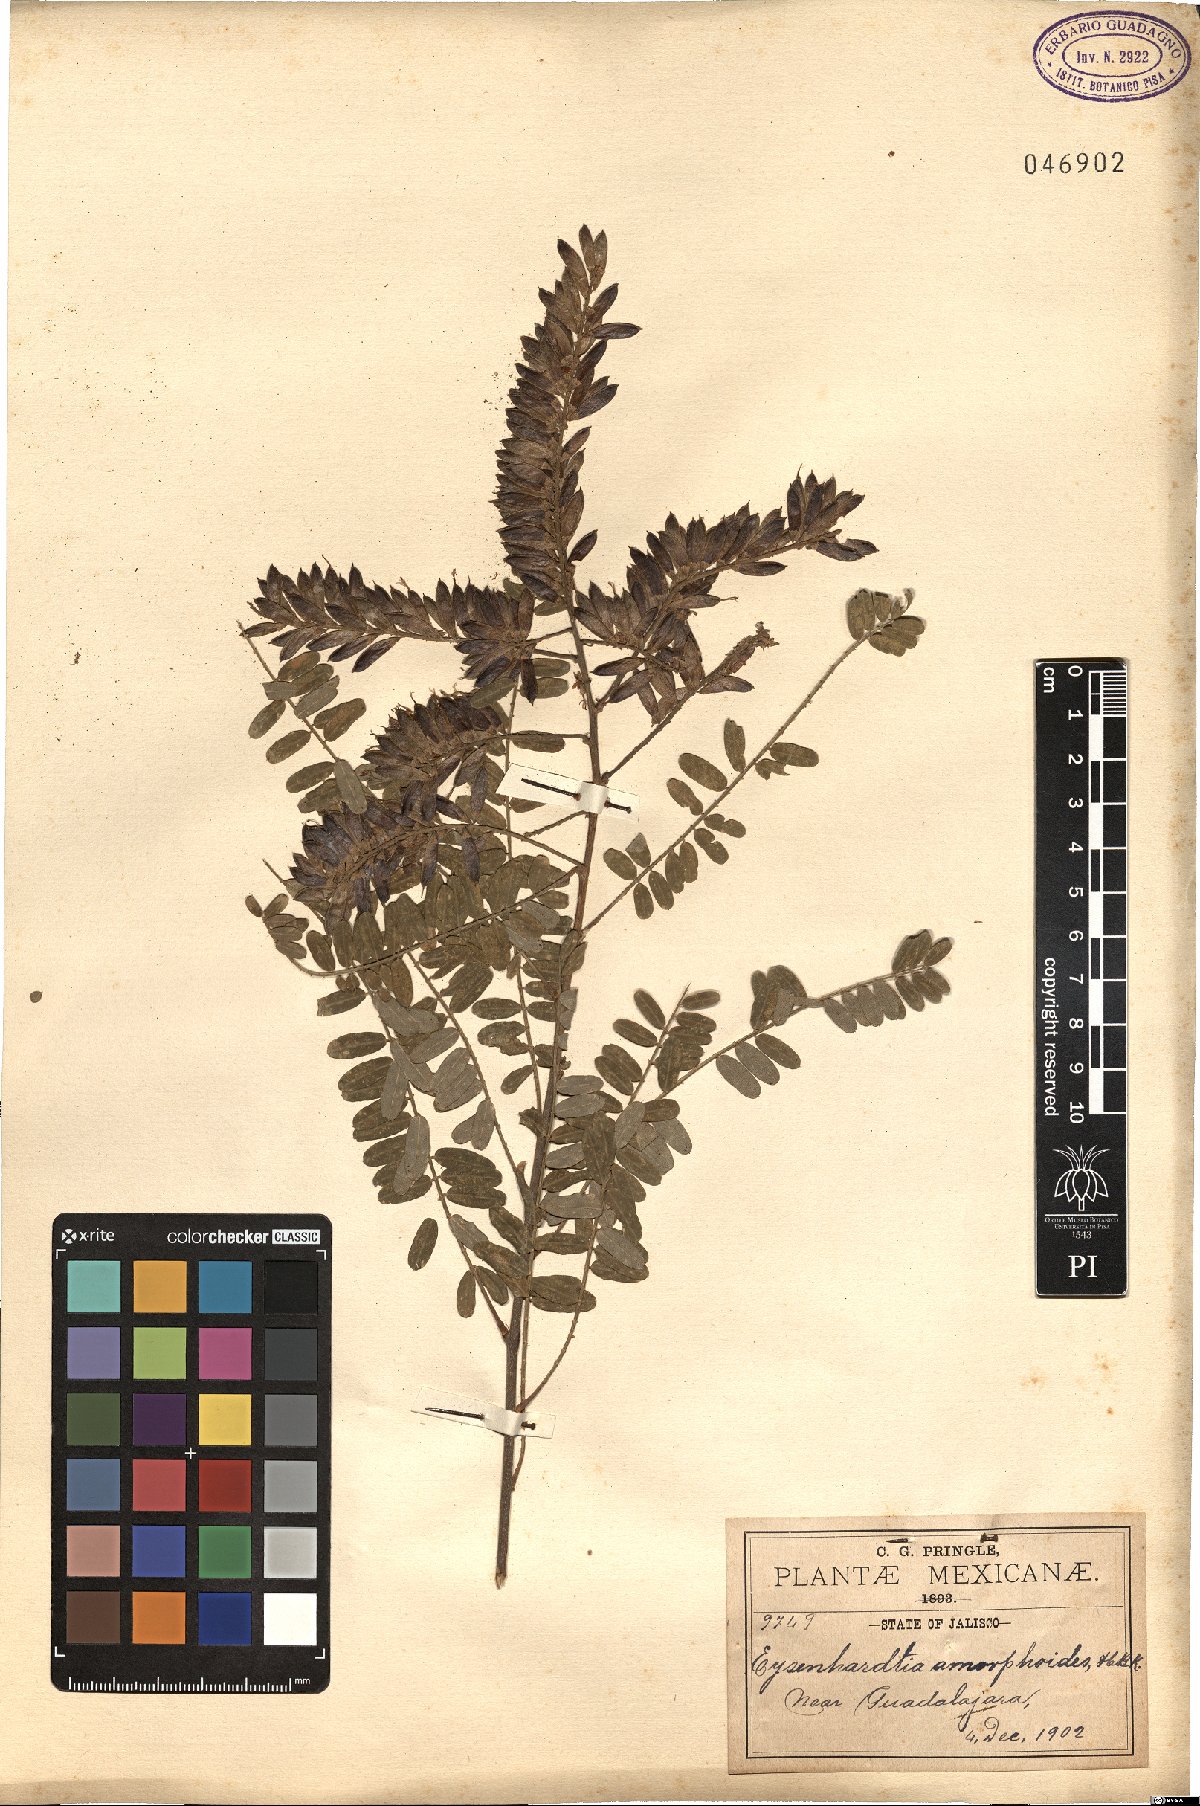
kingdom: Plantae
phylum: Tracheophyta
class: Magnoliopsida
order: Fabales
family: Fabaceae
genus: Eysenhardtia
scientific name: Eysenhardtia polystachya
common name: Kidneywood
